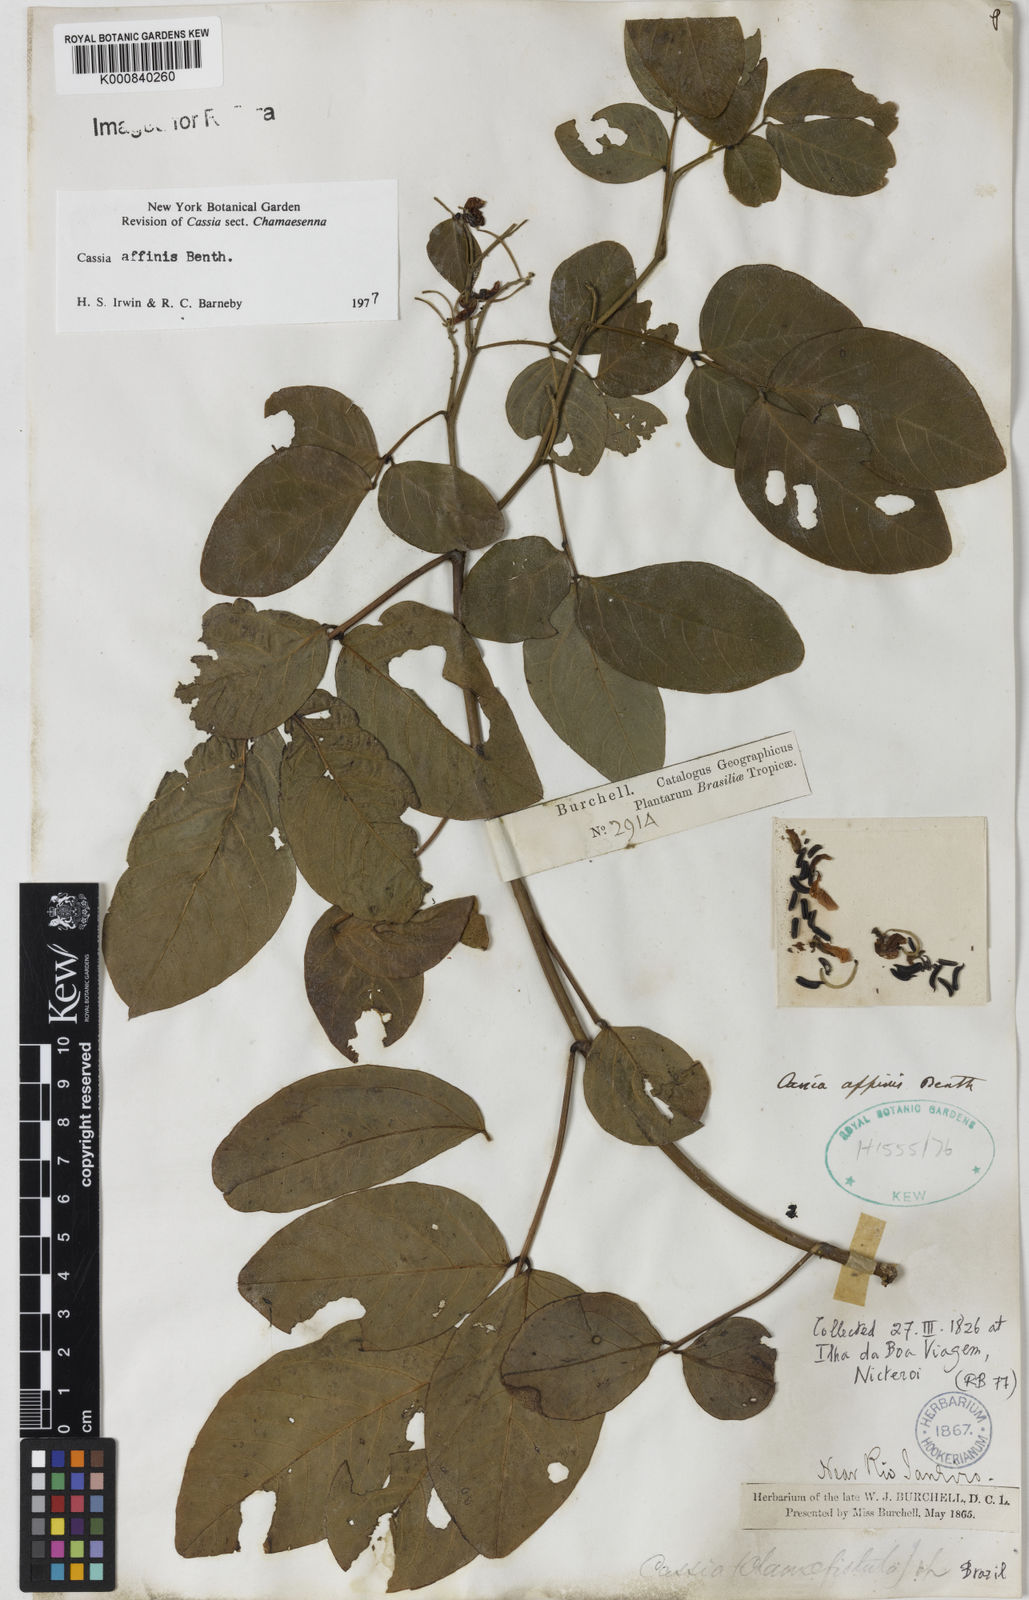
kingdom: Plantae
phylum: Tracheophyta
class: Magnoliopsida
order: Fabales
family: Fabaceae
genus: Senna
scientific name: Senna affinis
